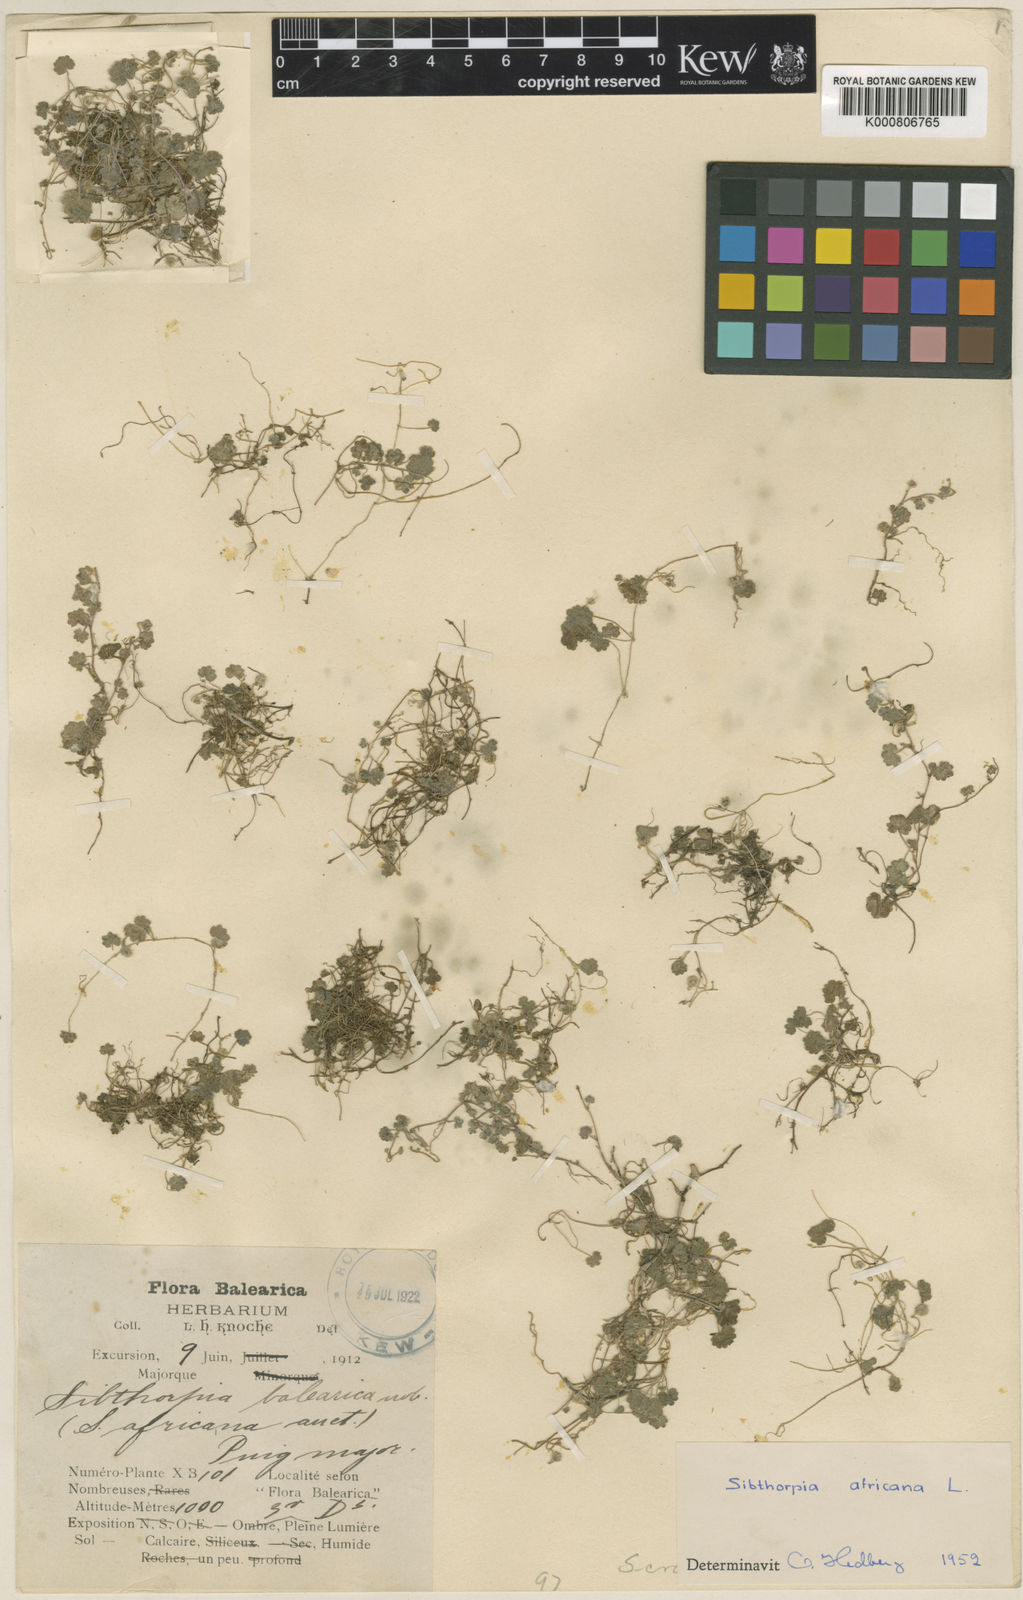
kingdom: Plantae
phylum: Tracheophyta
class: Magnoliopsida
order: Lamiales
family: Plantaginaceae
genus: Sibthorpia
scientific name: Sibthorpia africana
